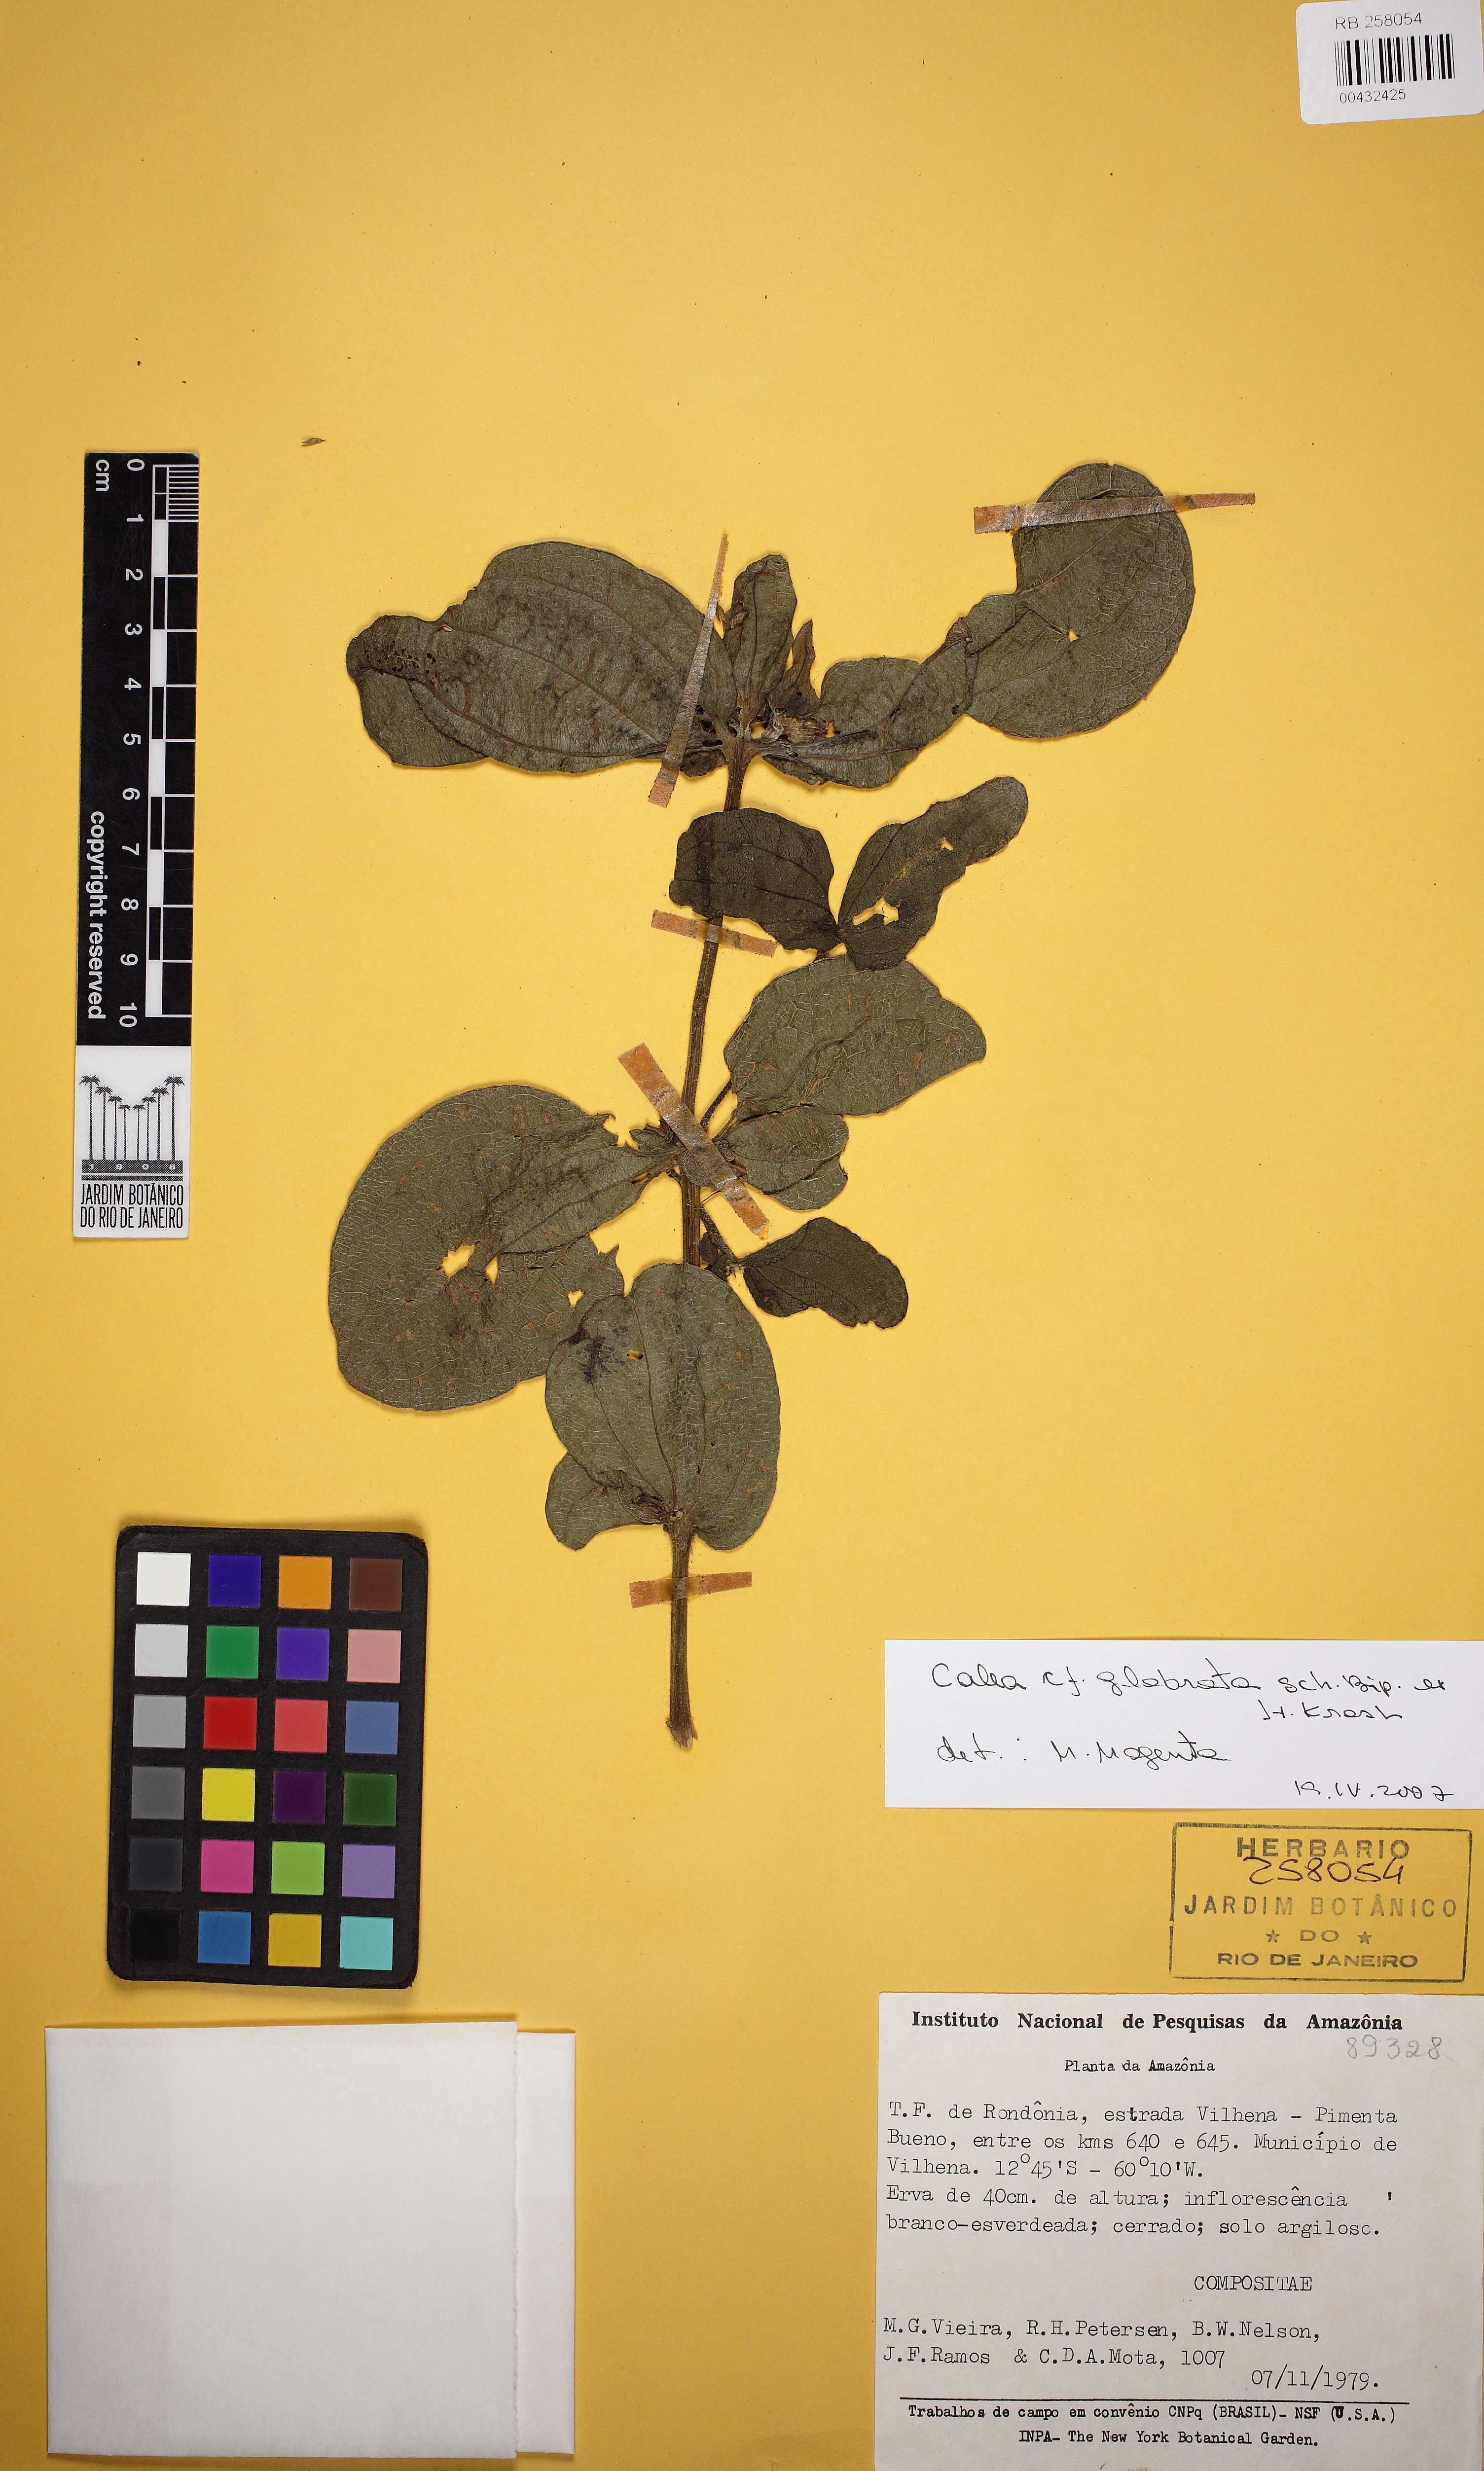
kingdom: Plantae
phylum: Tracheophyta
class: Magnoliopsida
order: Asterales
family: Asteraceae
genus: Calea
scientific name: Calea glabrata
